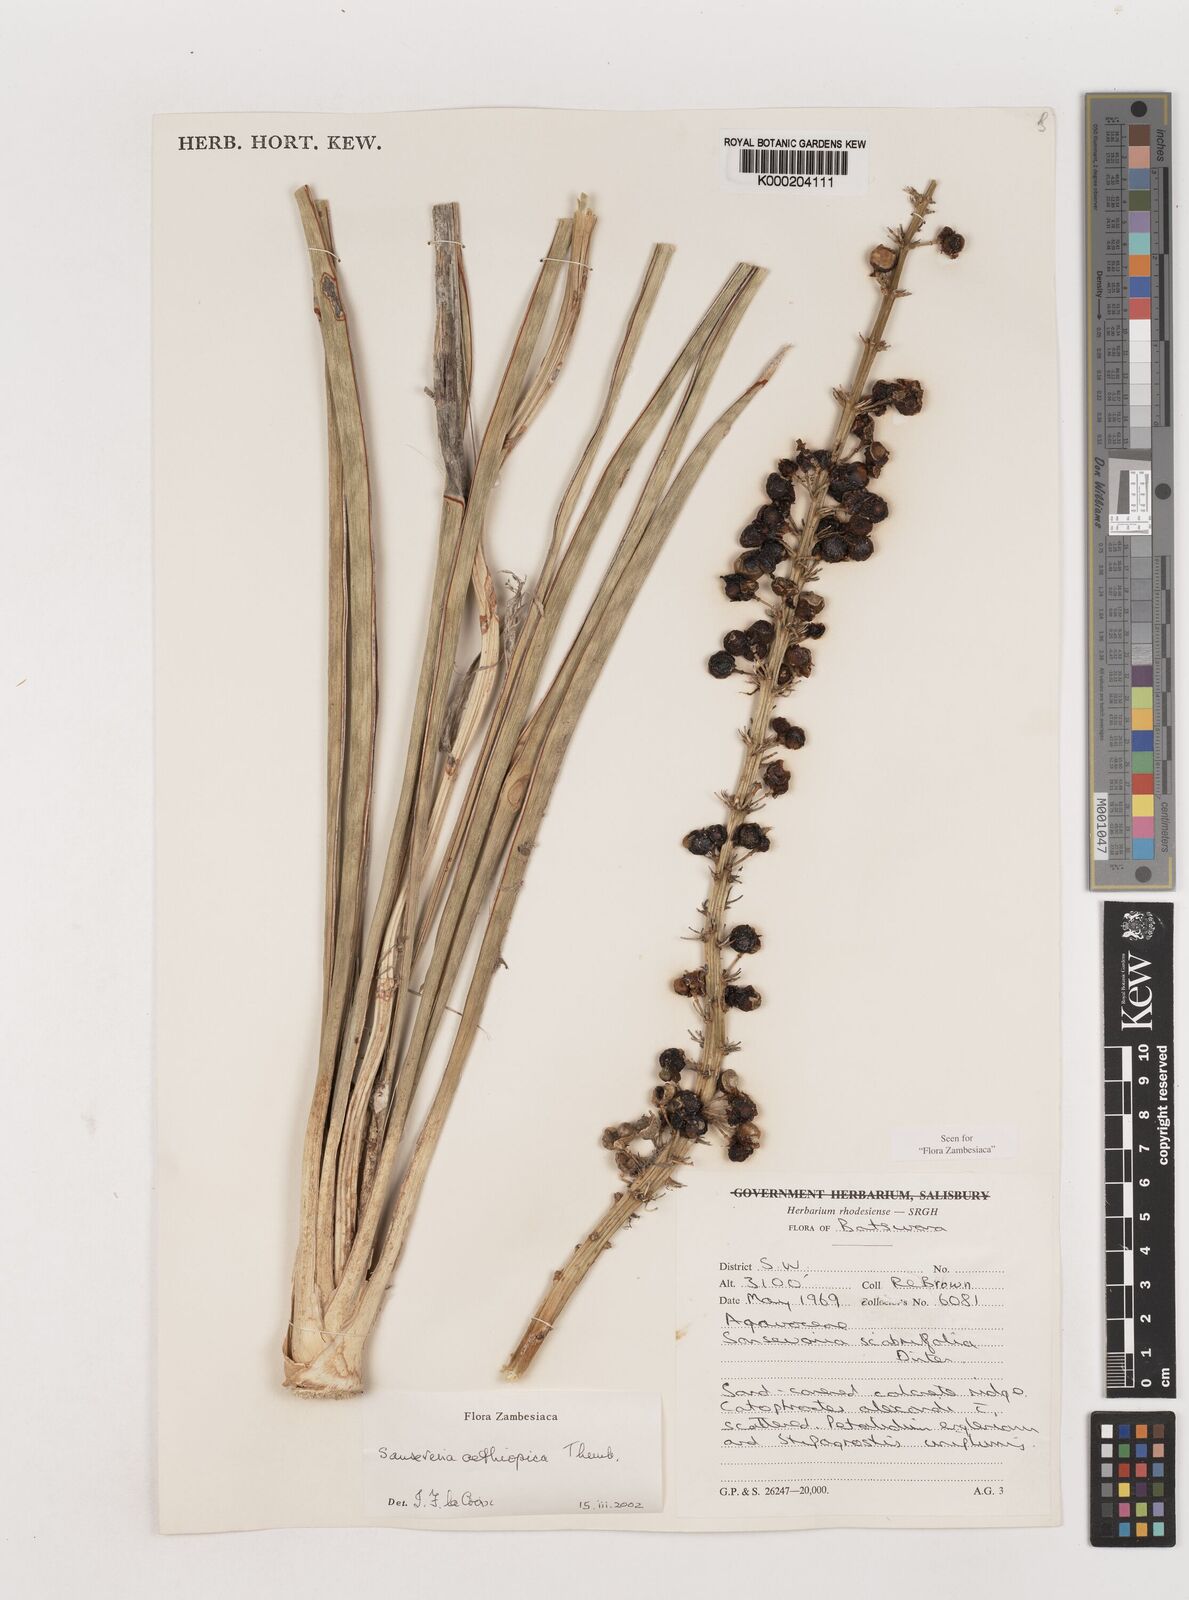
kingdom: Plantae
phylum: Tracheophyta
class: Liliopsida
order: Asparagales
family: Asparagaceae
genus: Dracaena
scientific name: Dracaena aethiopica
